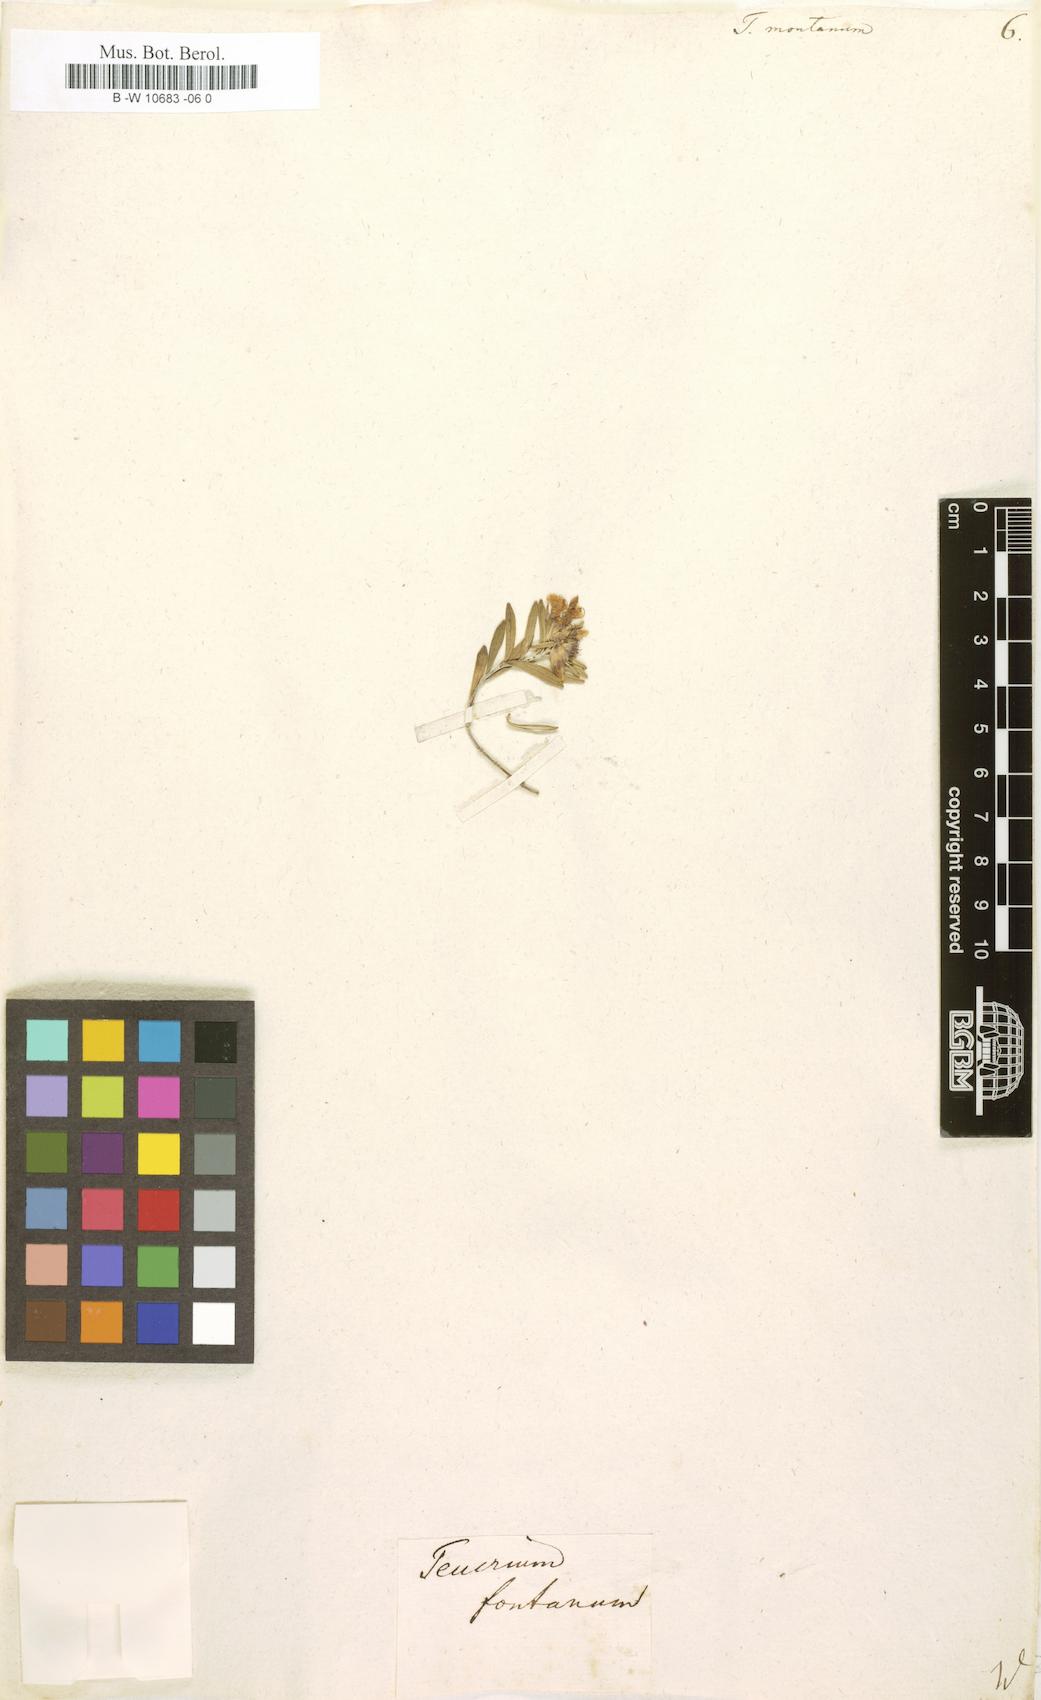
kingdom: Plantae
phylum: Tracheophyta
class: Magnoliopsida
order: Lamiales
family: Lamiaceae
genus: Teucrium
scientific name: Teucrium montanum
